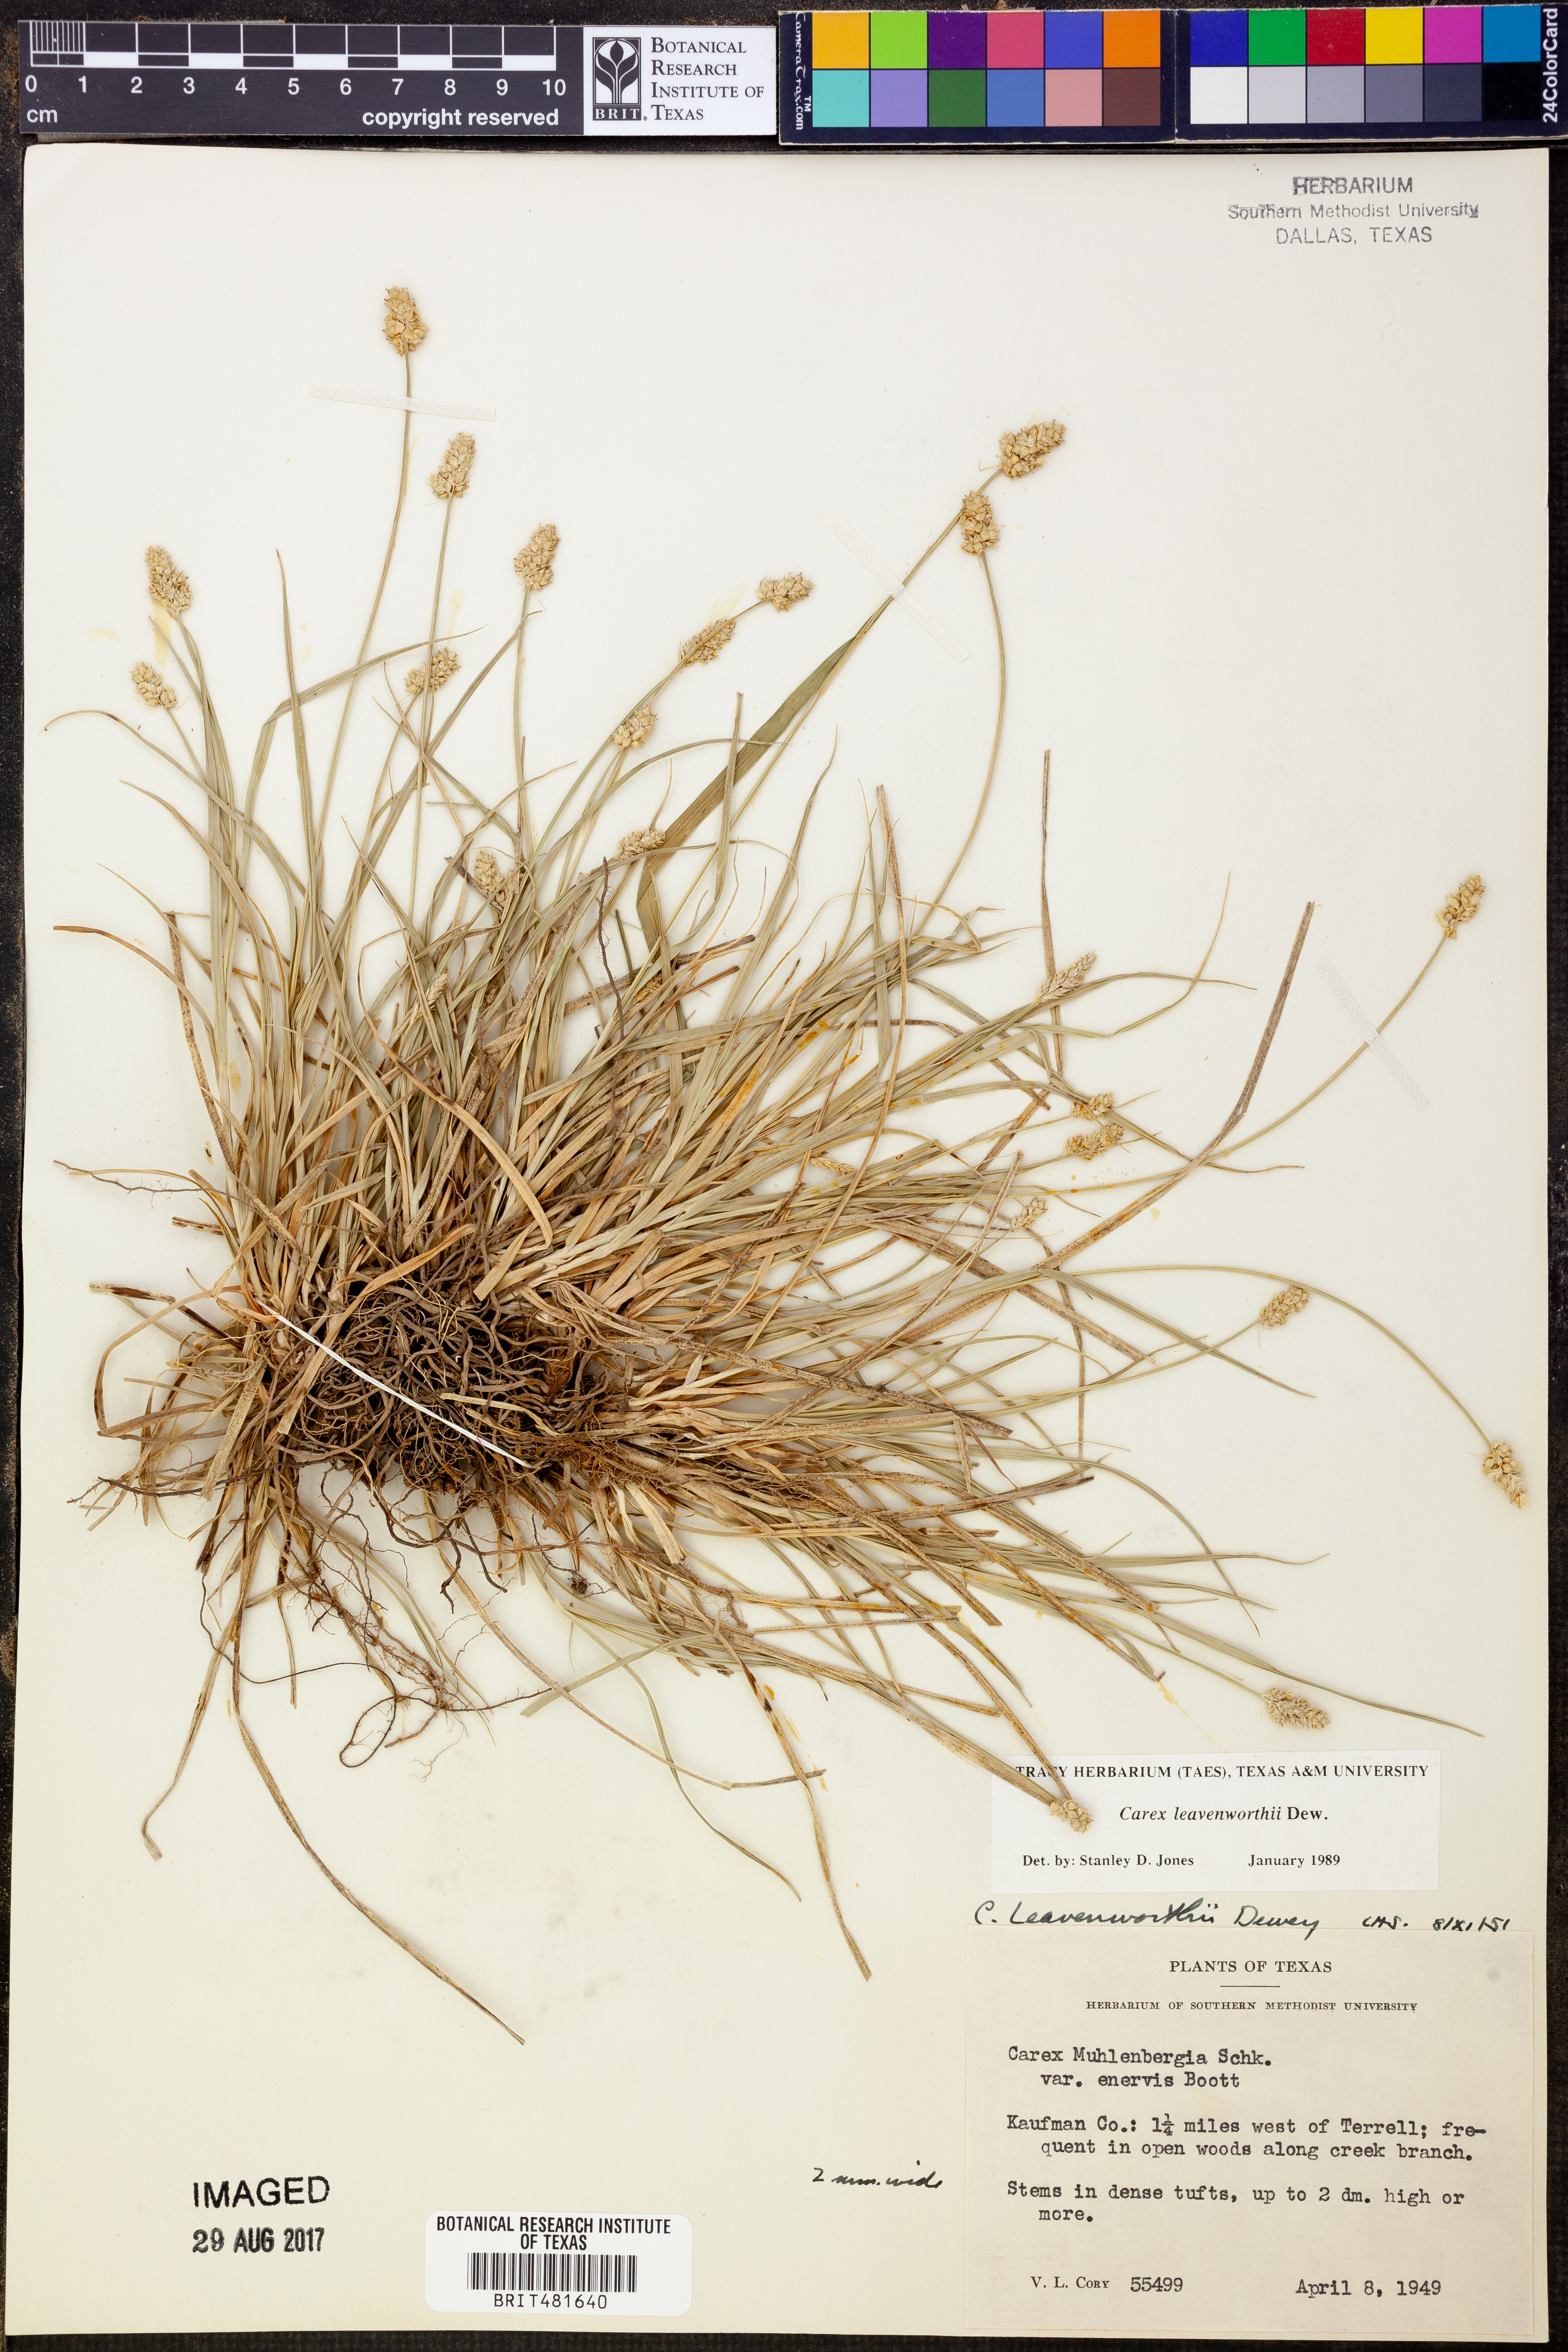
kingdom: Plantae
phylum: Tracheophyta
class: Liliopsida
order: Poales
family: Cyperaceae
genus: Carex
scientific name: Carex leavenworthii
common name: Leavenworth's bracted sedge
